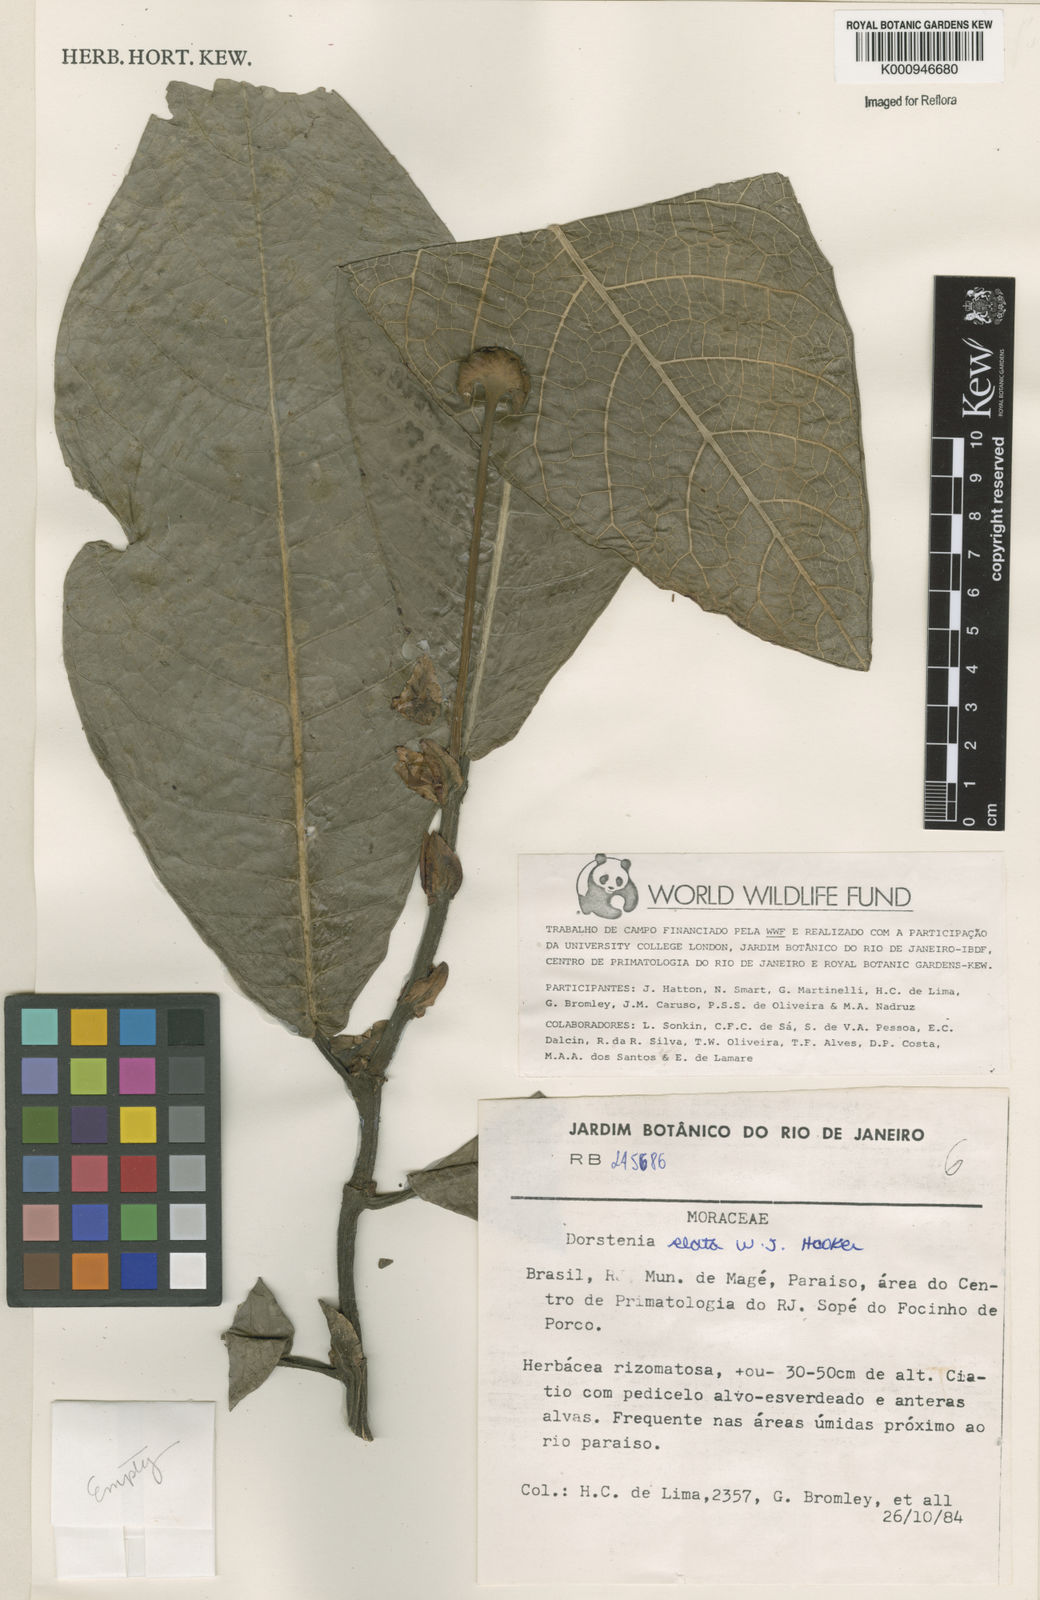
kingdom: Plantae
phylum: Tracheophyta
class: Magnoliopsida
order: Rosales
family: Moraceae
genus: Dorstenia
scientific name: Dorstenia
